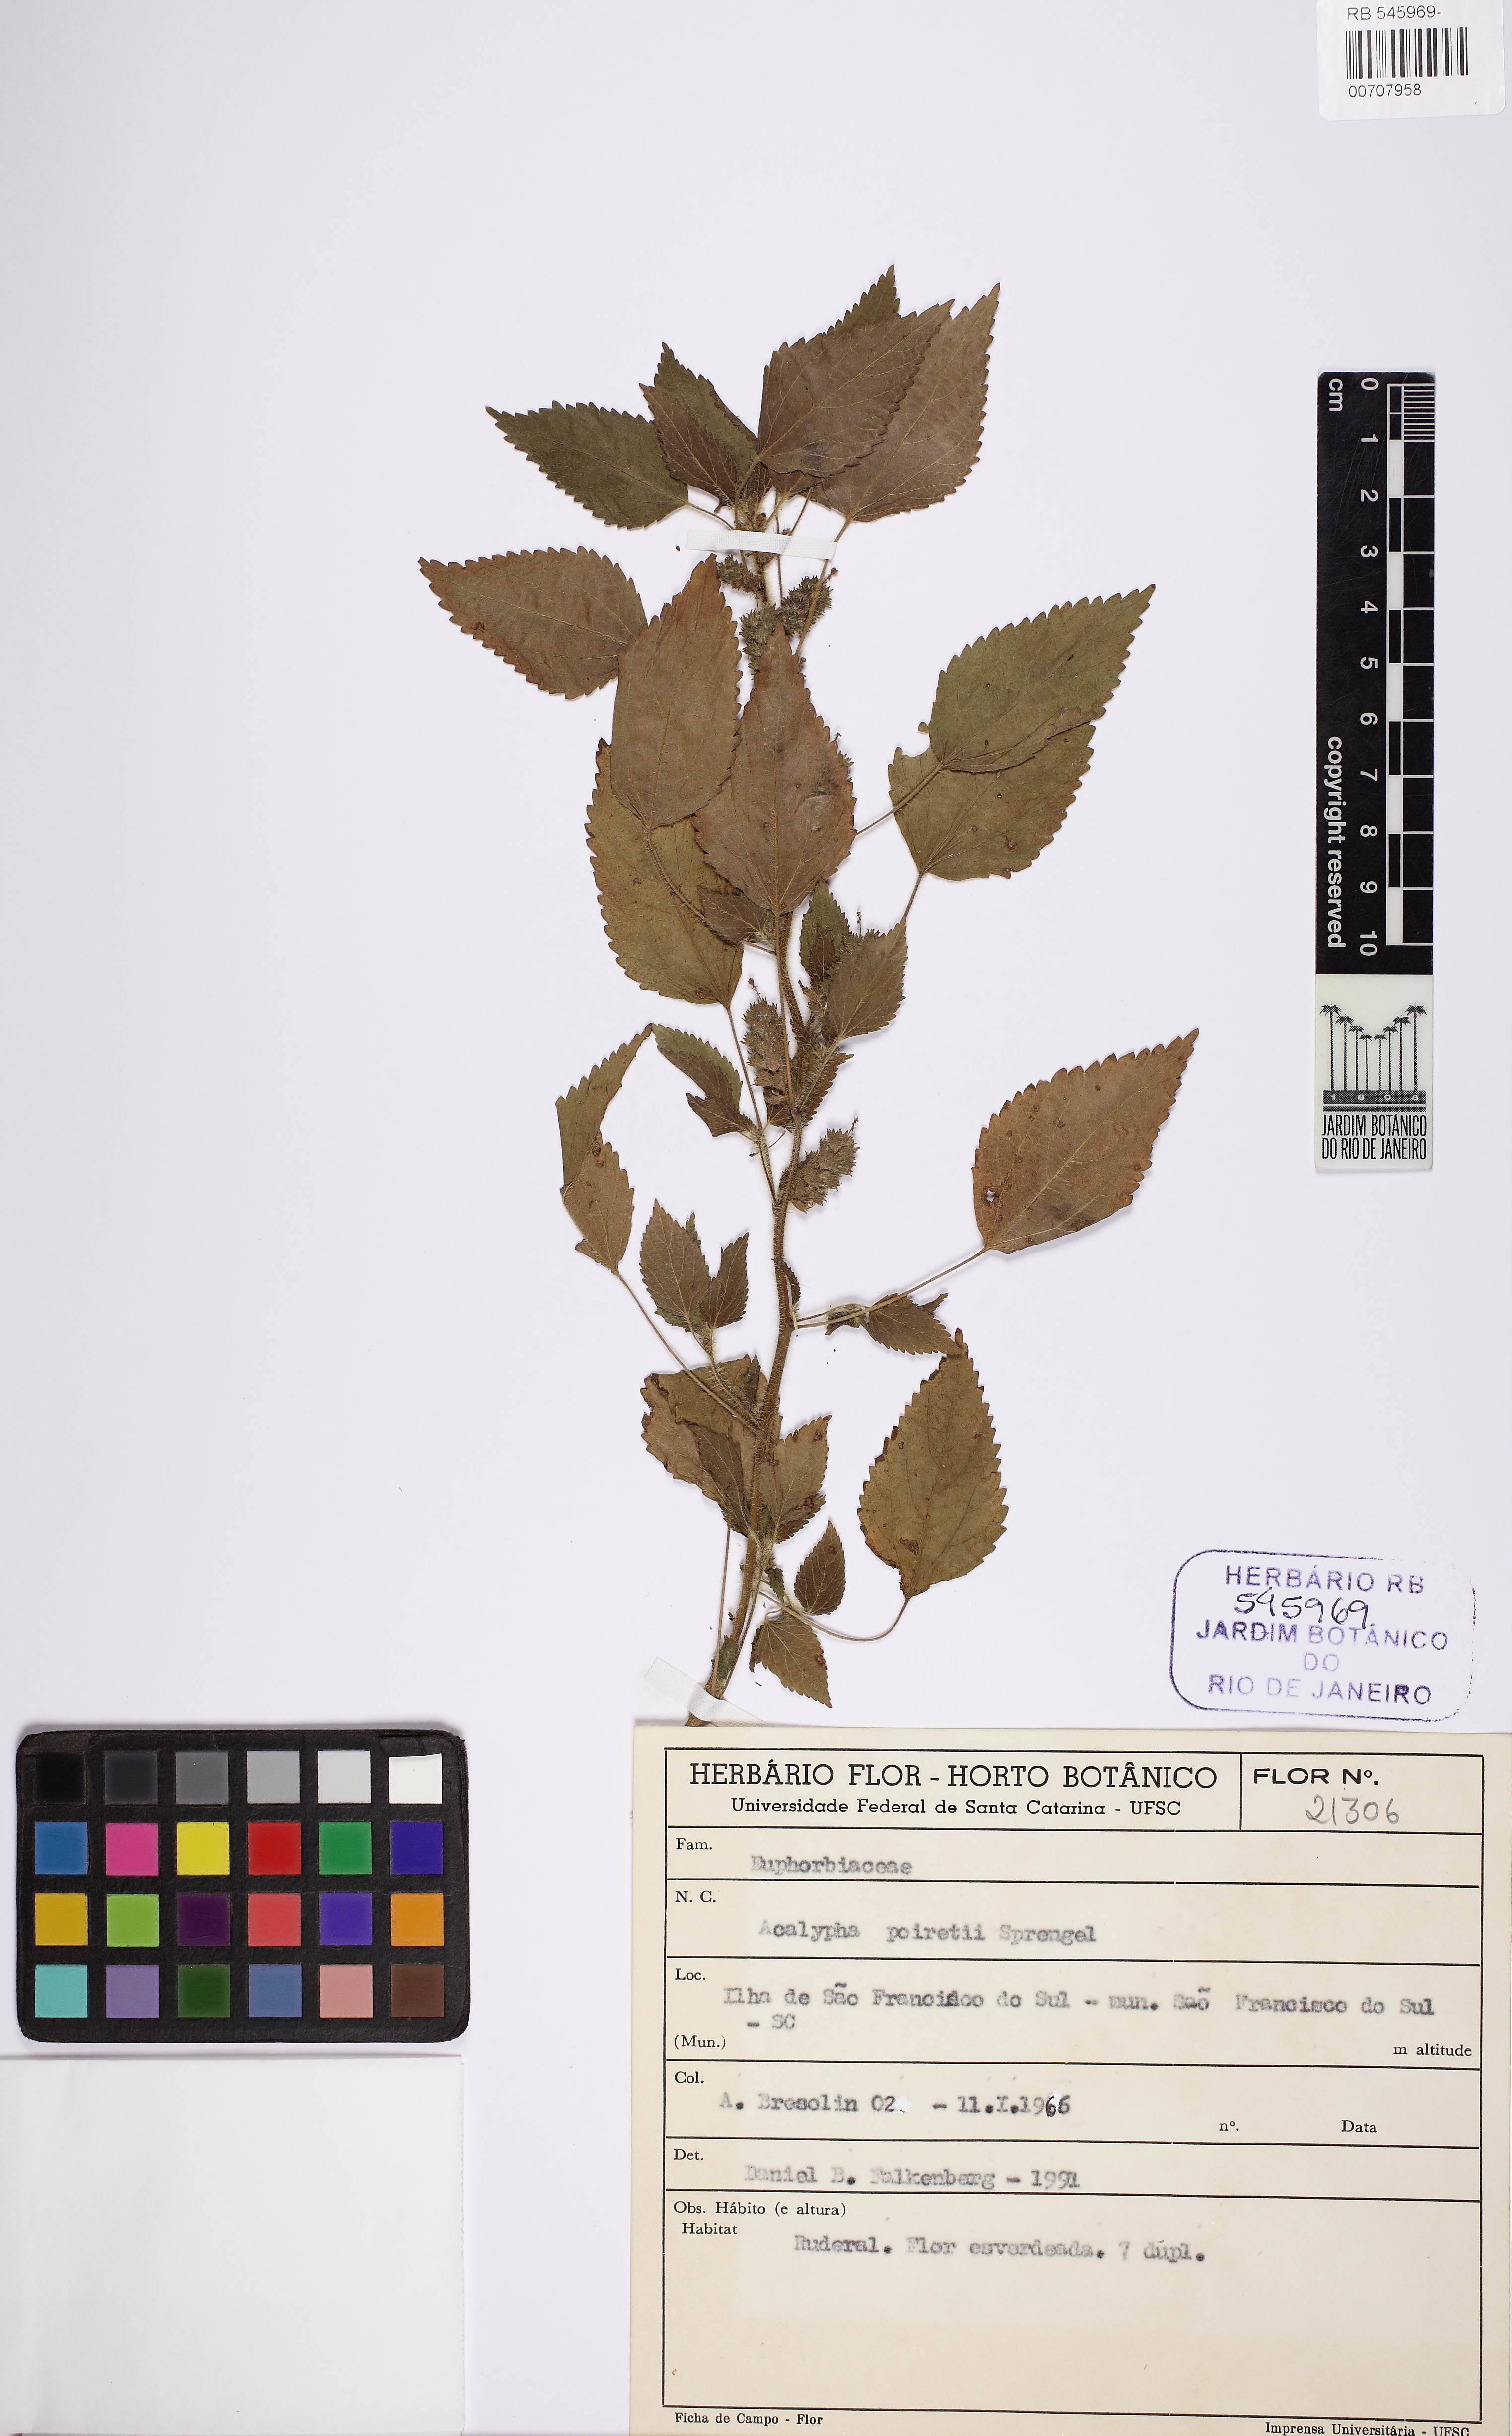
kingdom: Plantae
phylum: Tracheophyta
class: Magnoliopsida
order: Malpighiales
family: Euphorbiaceae
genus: Acalypha
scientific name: Acalypha poiretii
